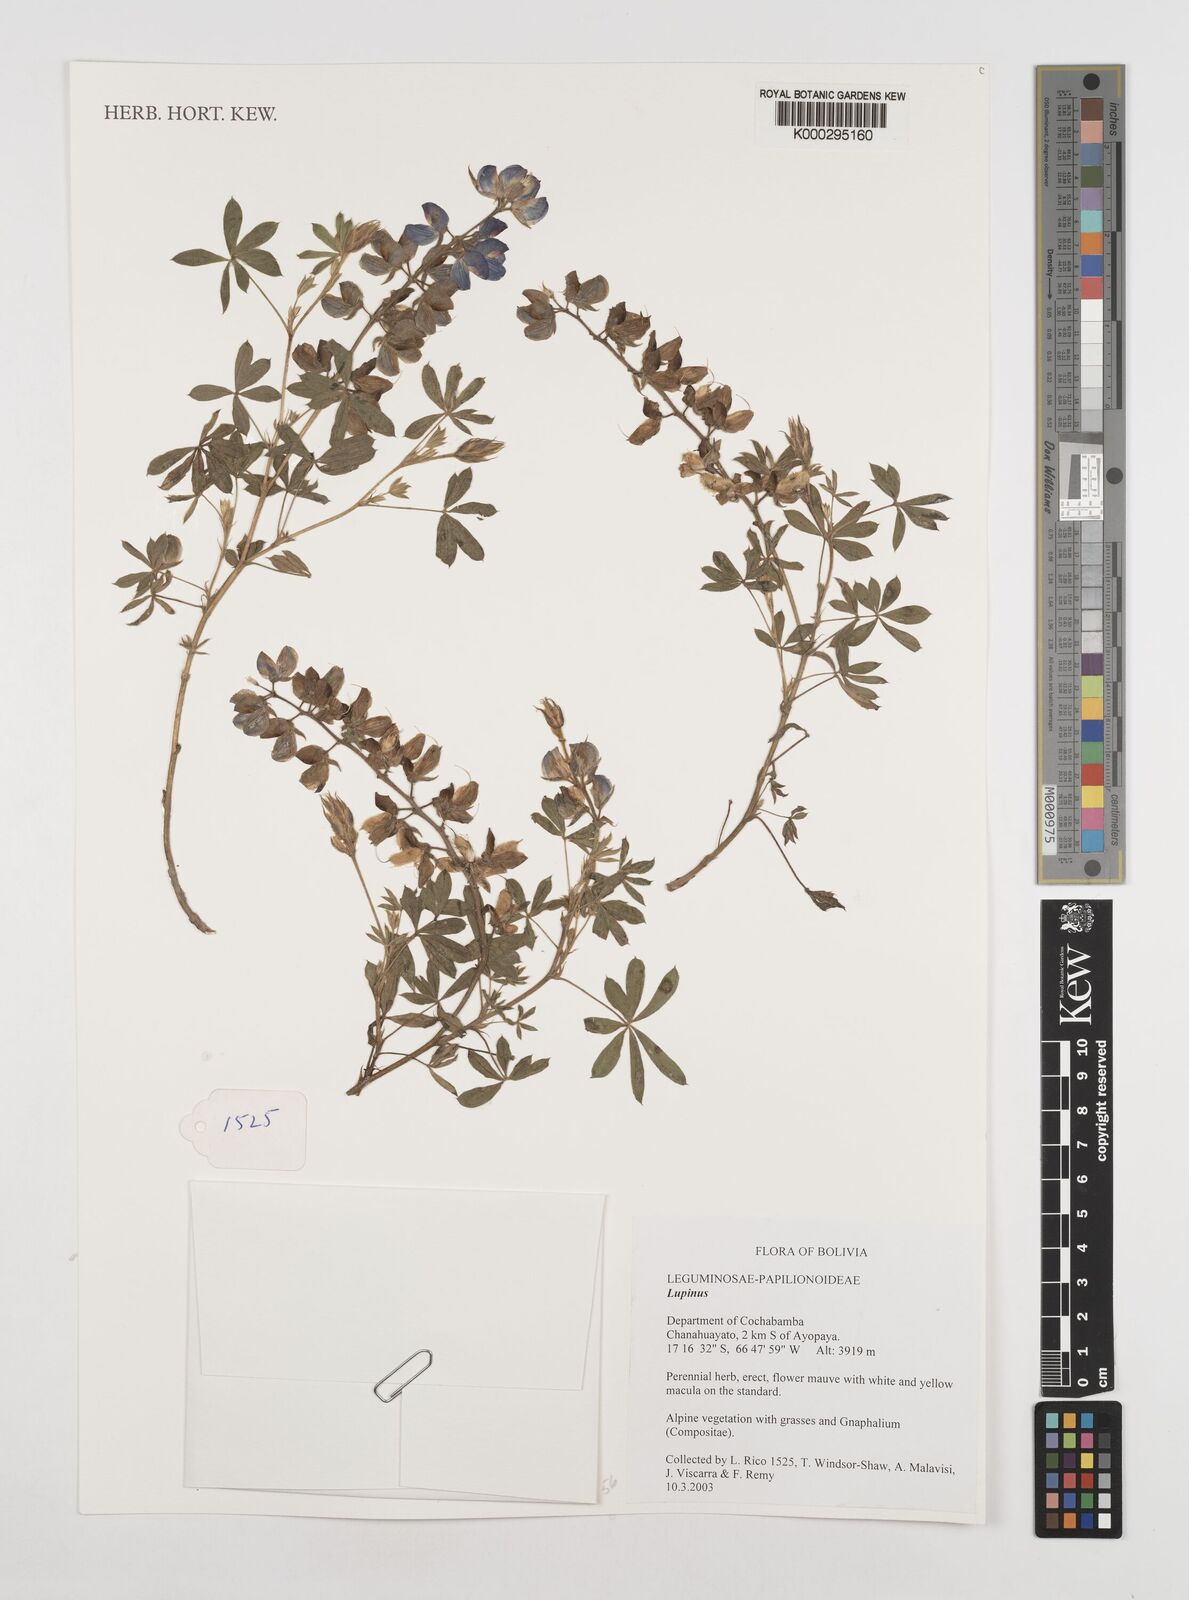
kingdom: Plantae
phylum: Tracheophyta
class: Magnoliopsida
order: Fabales
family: Fabaceae
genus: Lupinus
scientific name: Lupinus
